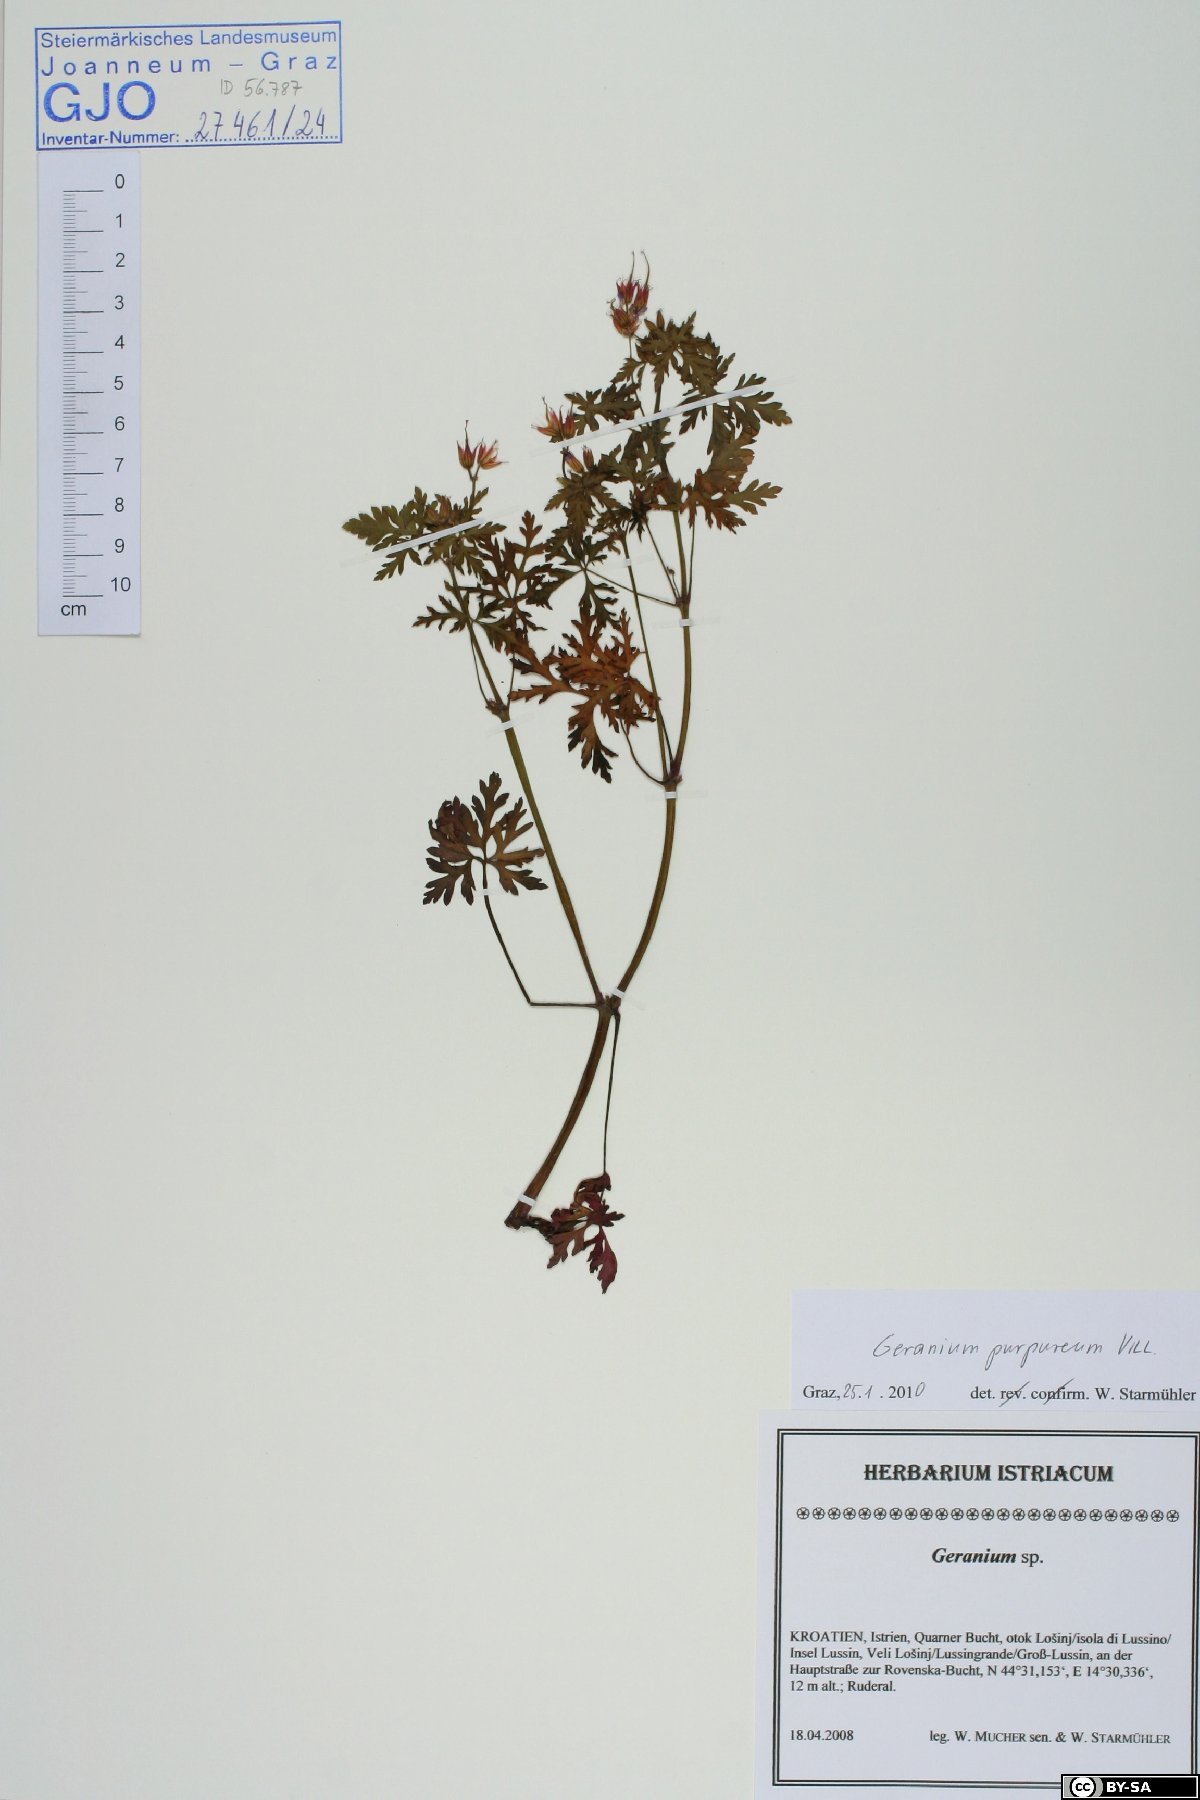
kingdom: Plantae
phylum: Tracheophyta
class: Magnoliopsida
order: Geraniales
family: Geraniaceae
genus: Geranium
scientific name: Geranium purpureum
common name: Little-robin
